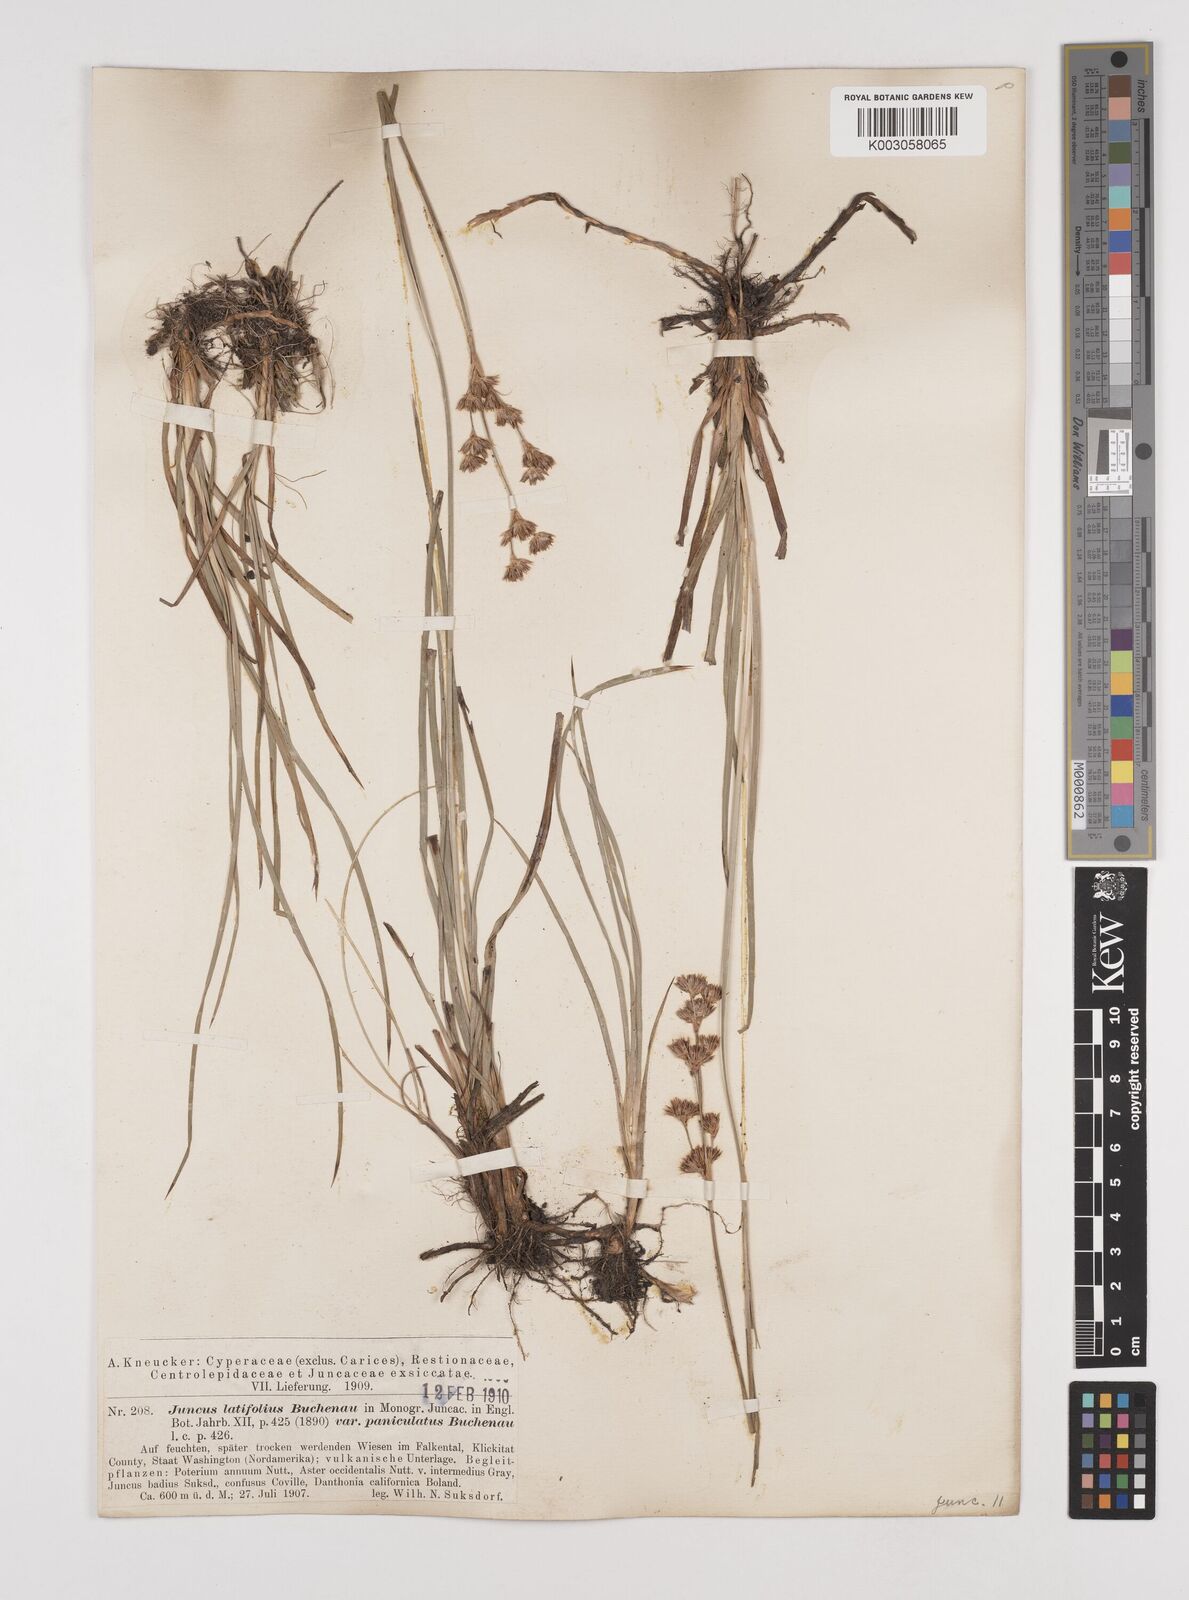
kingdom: Plantae
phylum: Tracheophyta
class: Liliopsida
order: Poales
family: Juncaceae
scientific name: Juncaceae
